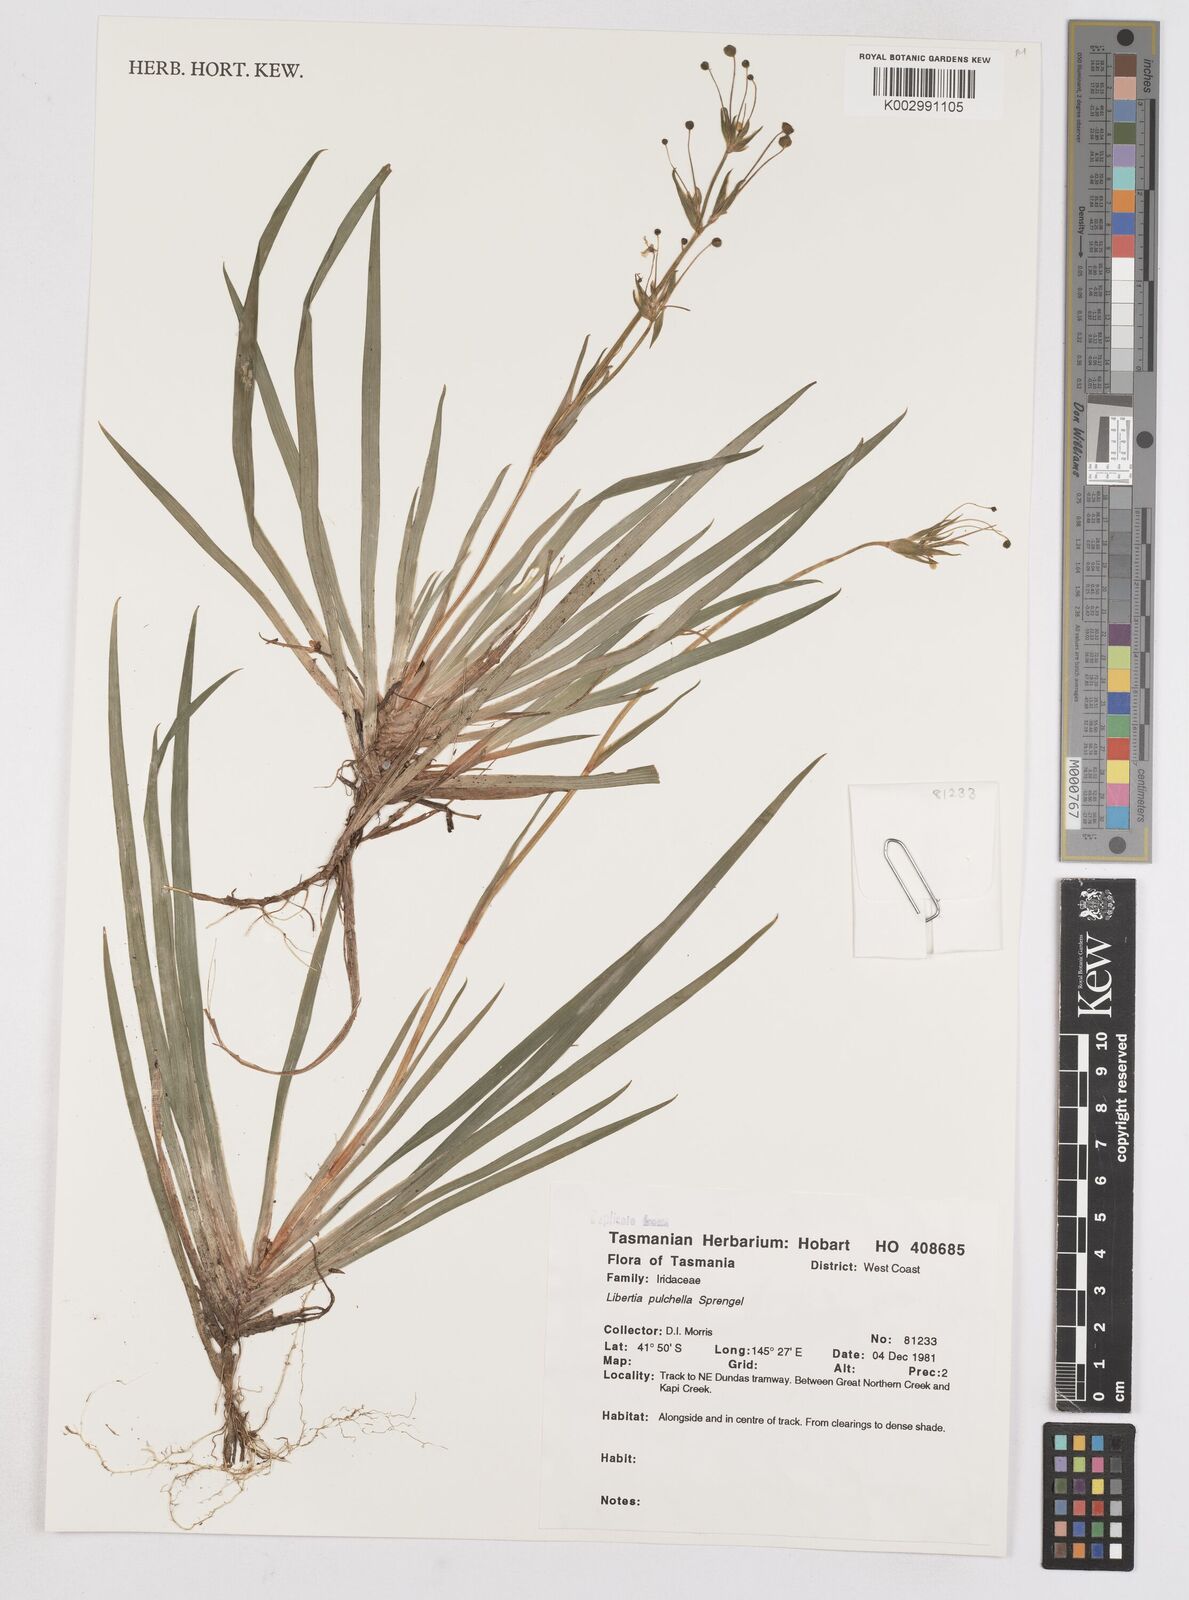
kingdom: Plantae
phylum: Tracheophyta
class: Liliopsida
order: Asparagales
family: Iridaceae
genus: Libertia
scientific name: Libertia pulchella
